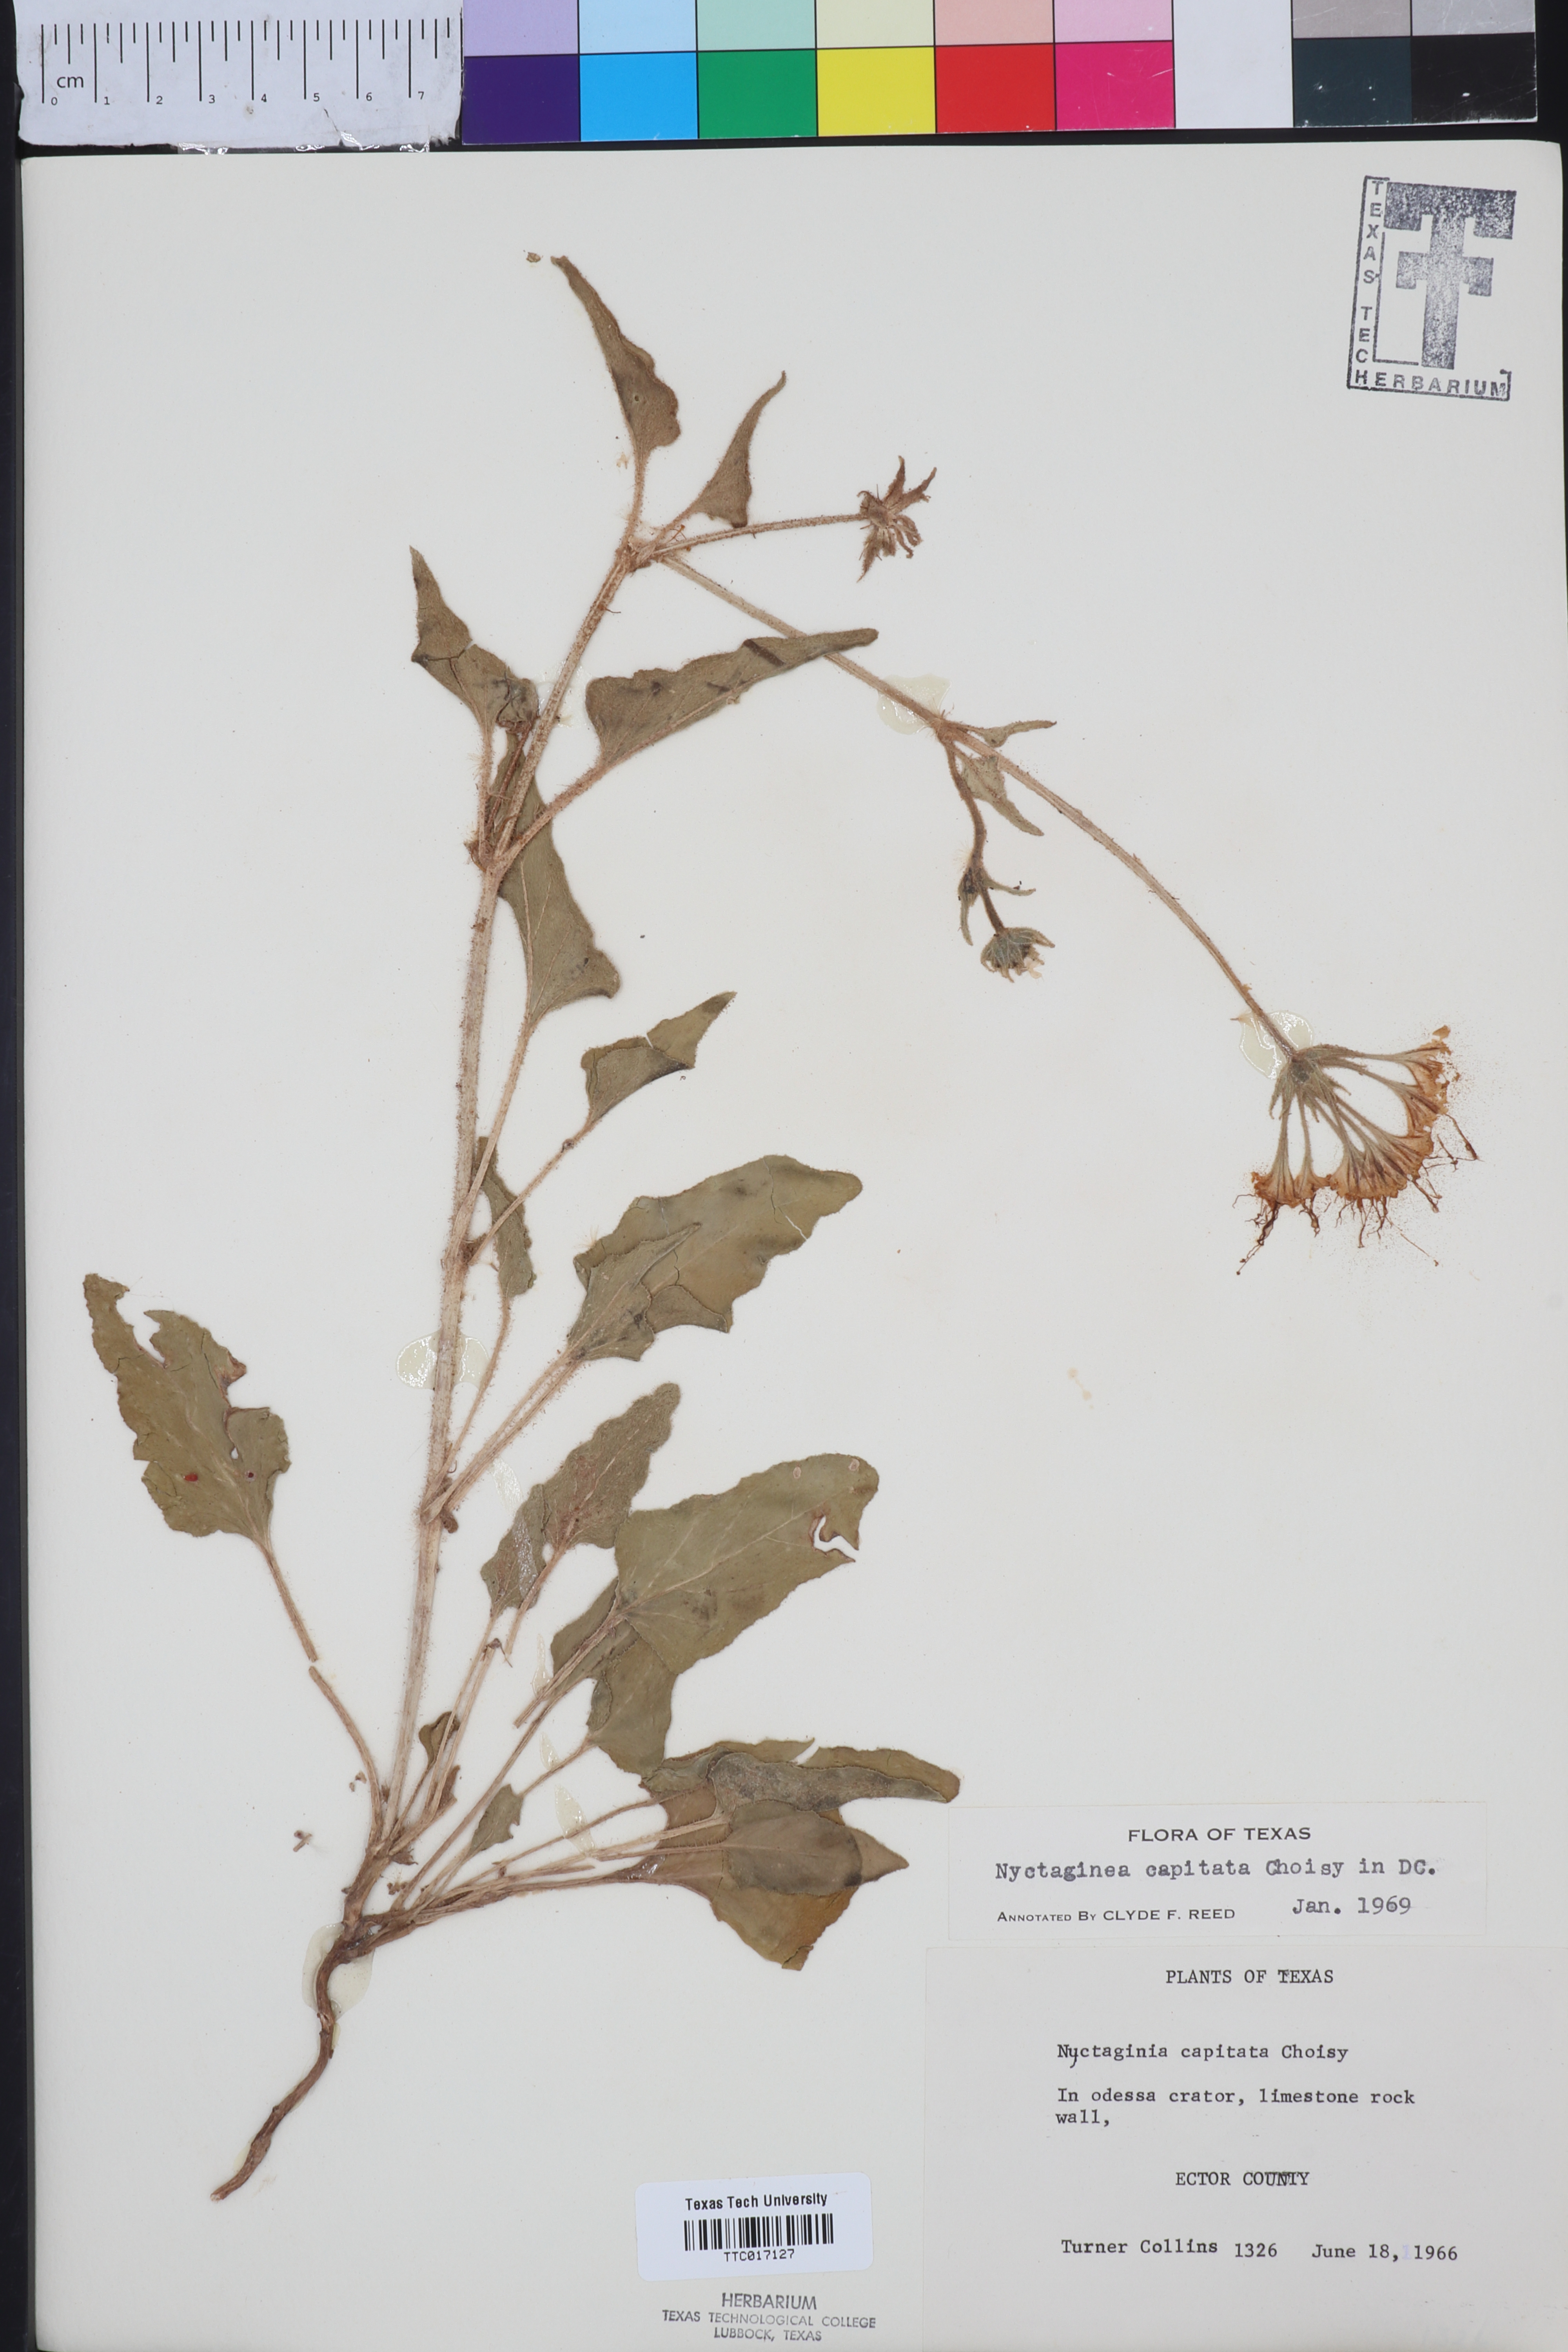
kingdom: Plantae
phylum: Tracheophyta
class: Magnoliopsida
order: Caryophyllales
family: Nyctaginaceae
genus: Nyctaginia
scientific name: Nyctaginia capitata
